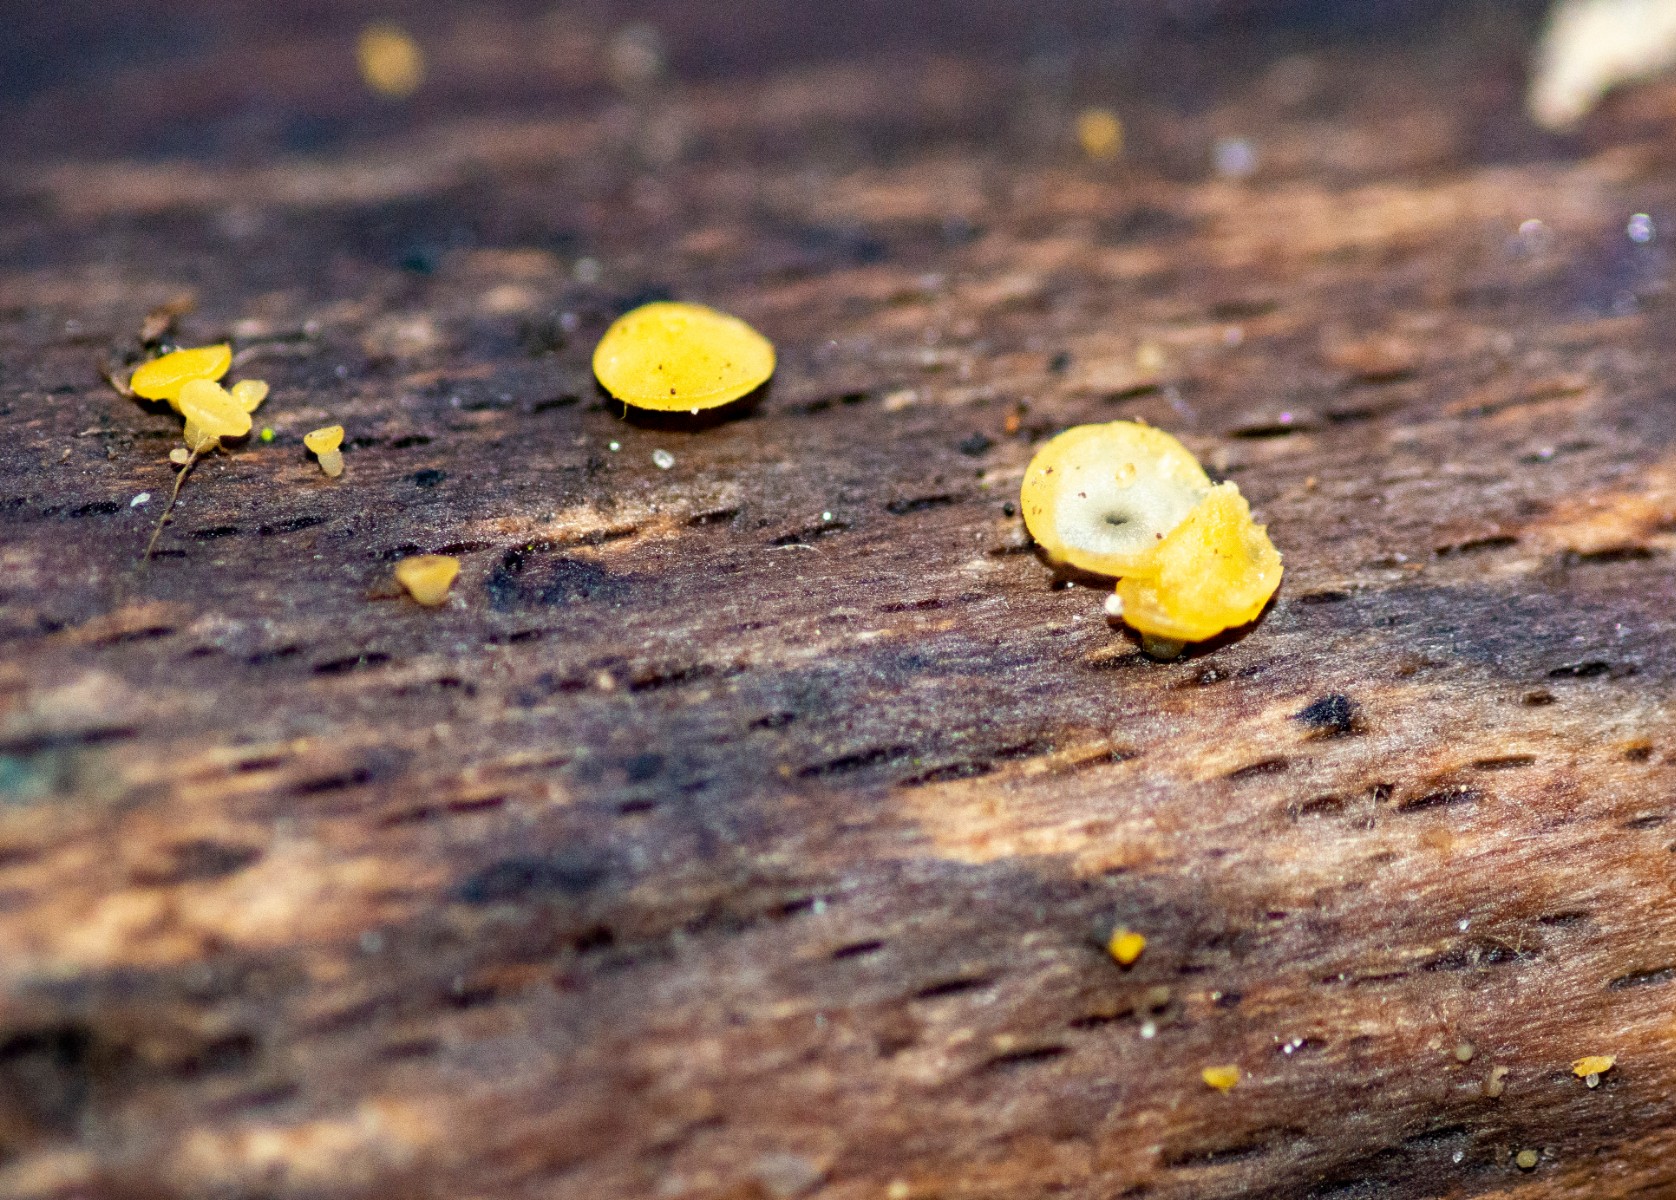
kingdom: Fungi
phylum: Ascomycota
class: Leotiomycetes
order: Helotiales
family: Pezizellaceae
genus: Calycina
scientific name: Calycina citrina
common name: almindelig gulskive
